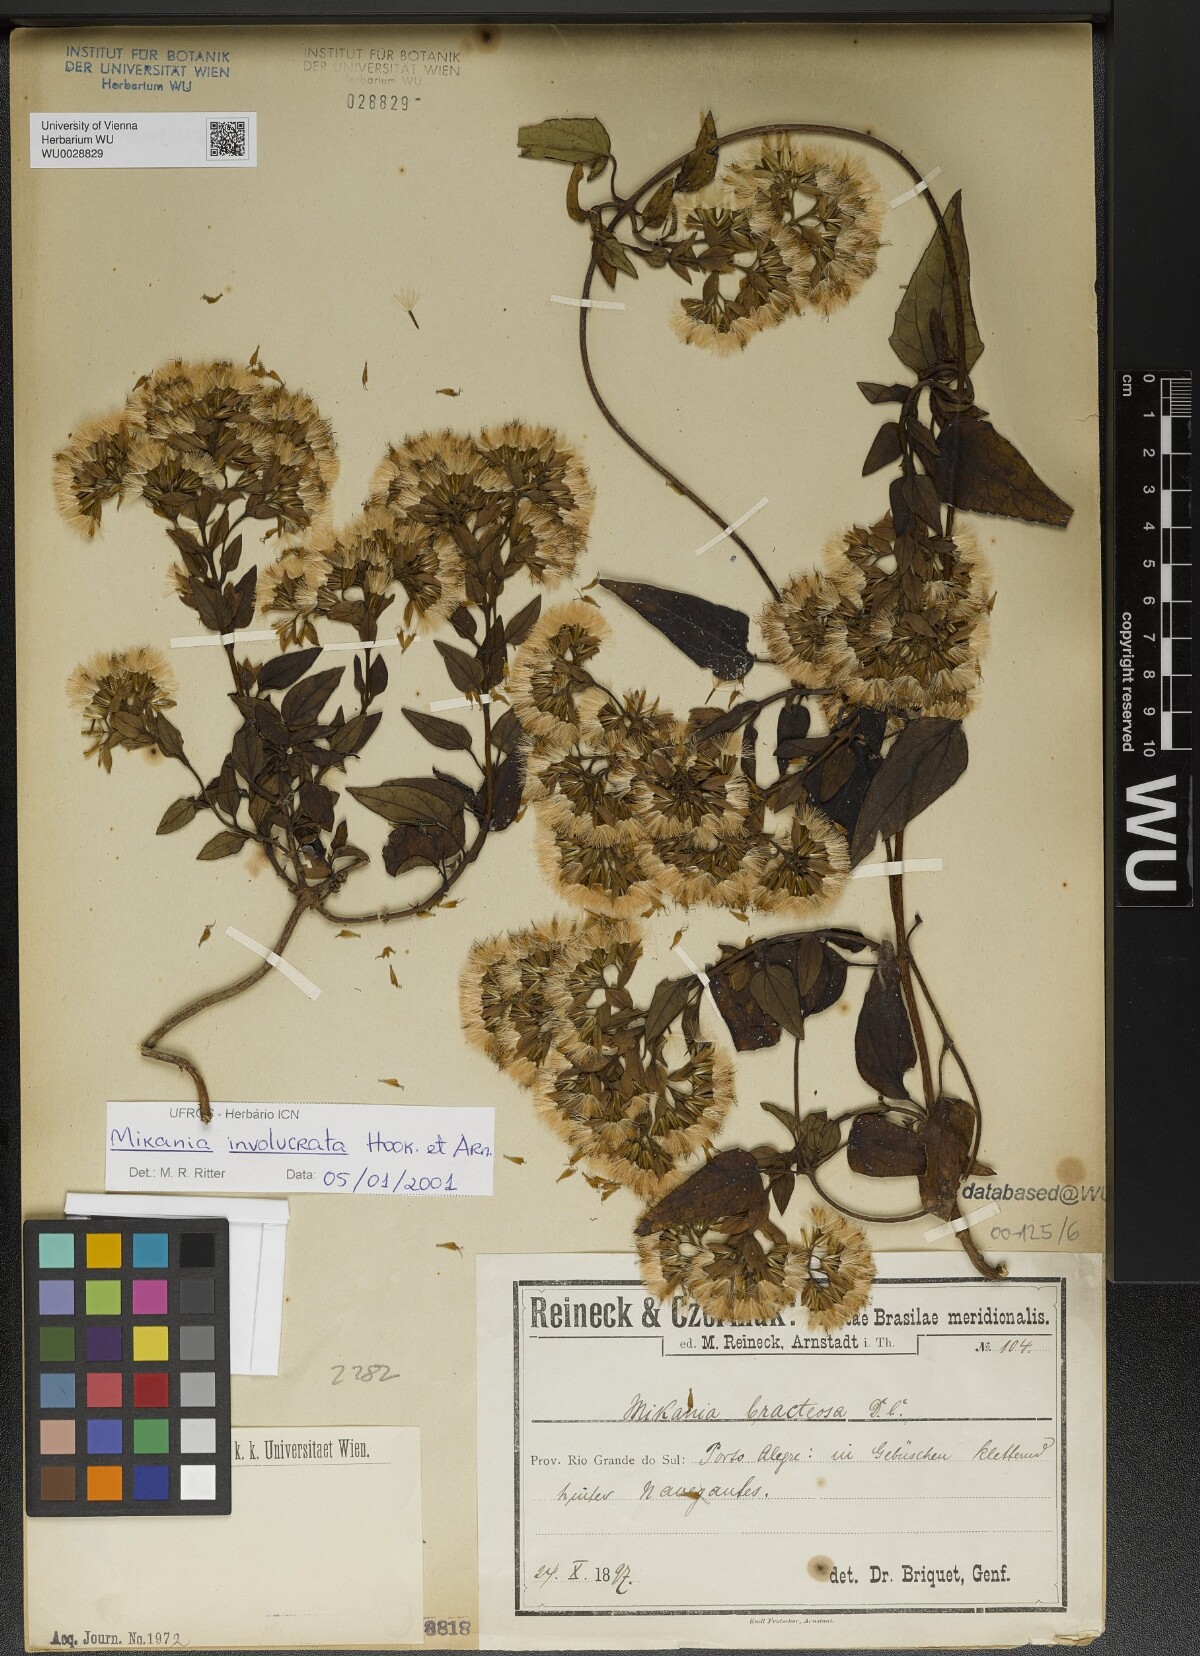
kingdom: Plantae
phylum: Tracheophyta
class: Magnoliopsida
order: Asterales
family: Asteraceae
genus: Mikania
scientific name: Mikania involucrata
